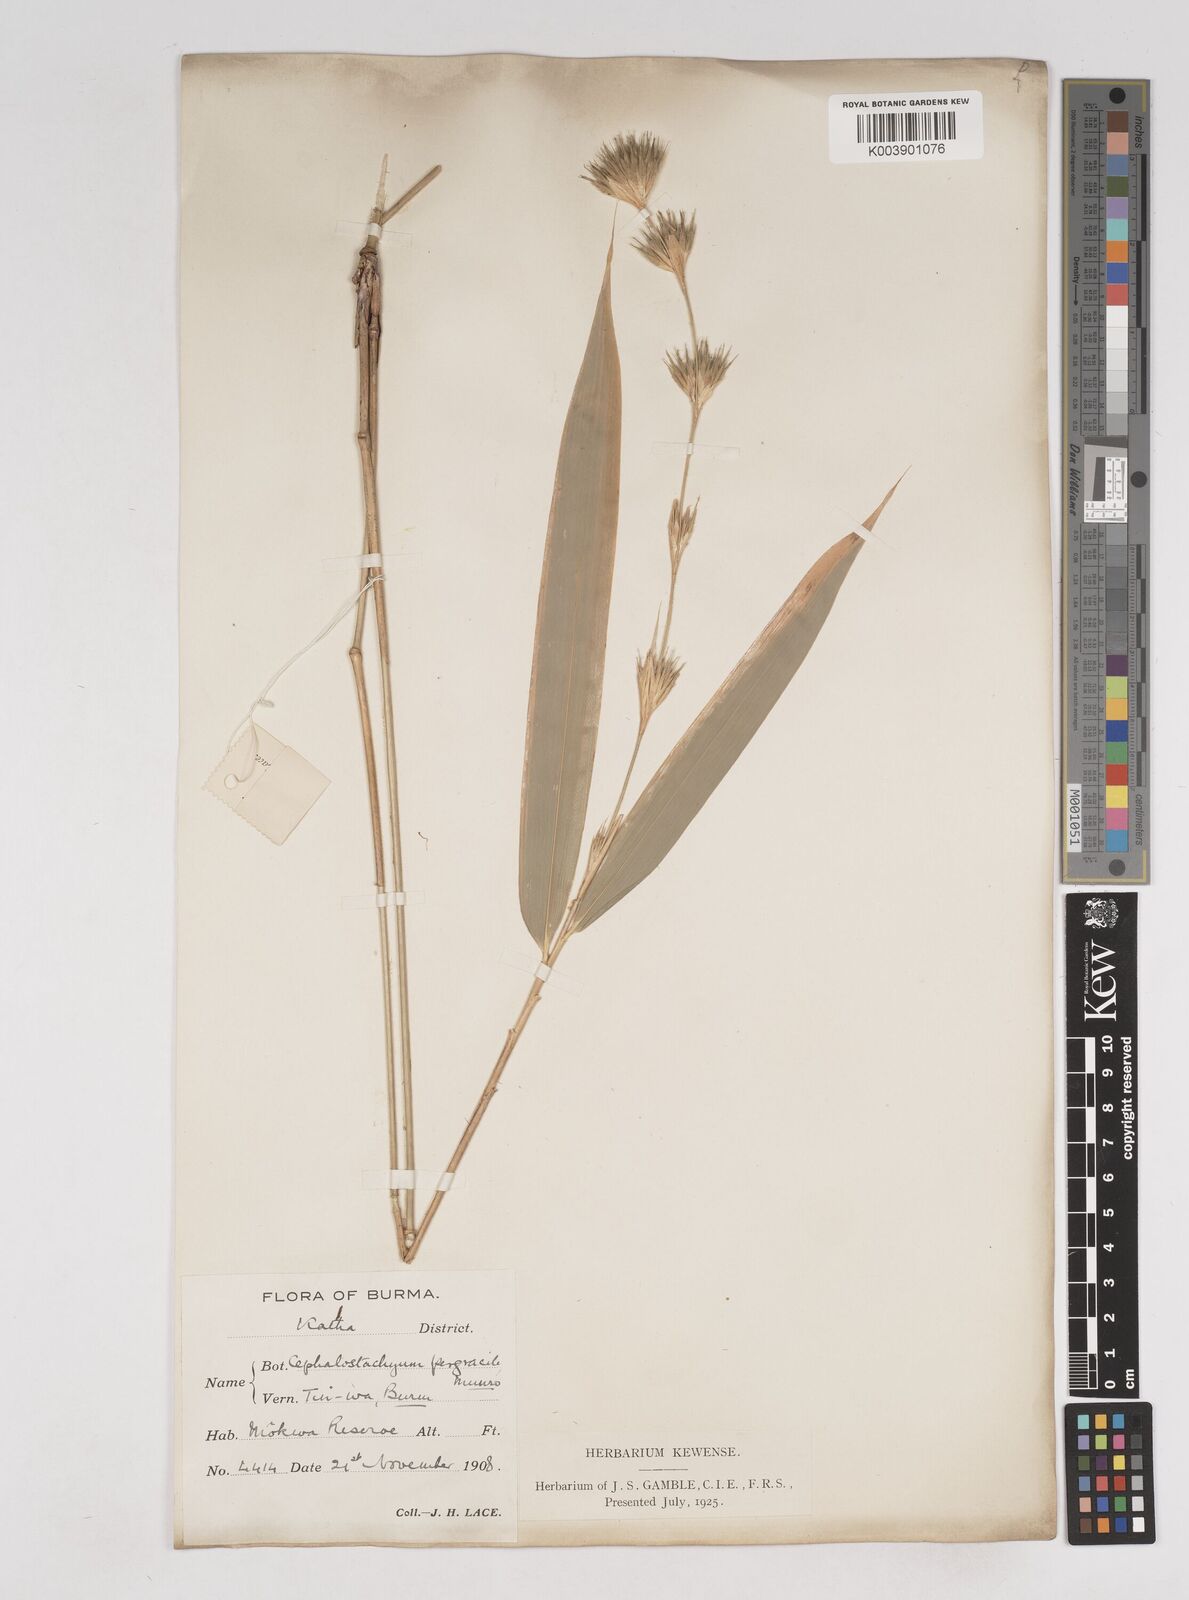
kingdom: Plantae
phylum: Tracheophyta
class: Liliopsida
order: Poales
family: Poaceae
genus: Schizostachyum
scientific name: Schizostachyum pergracile
